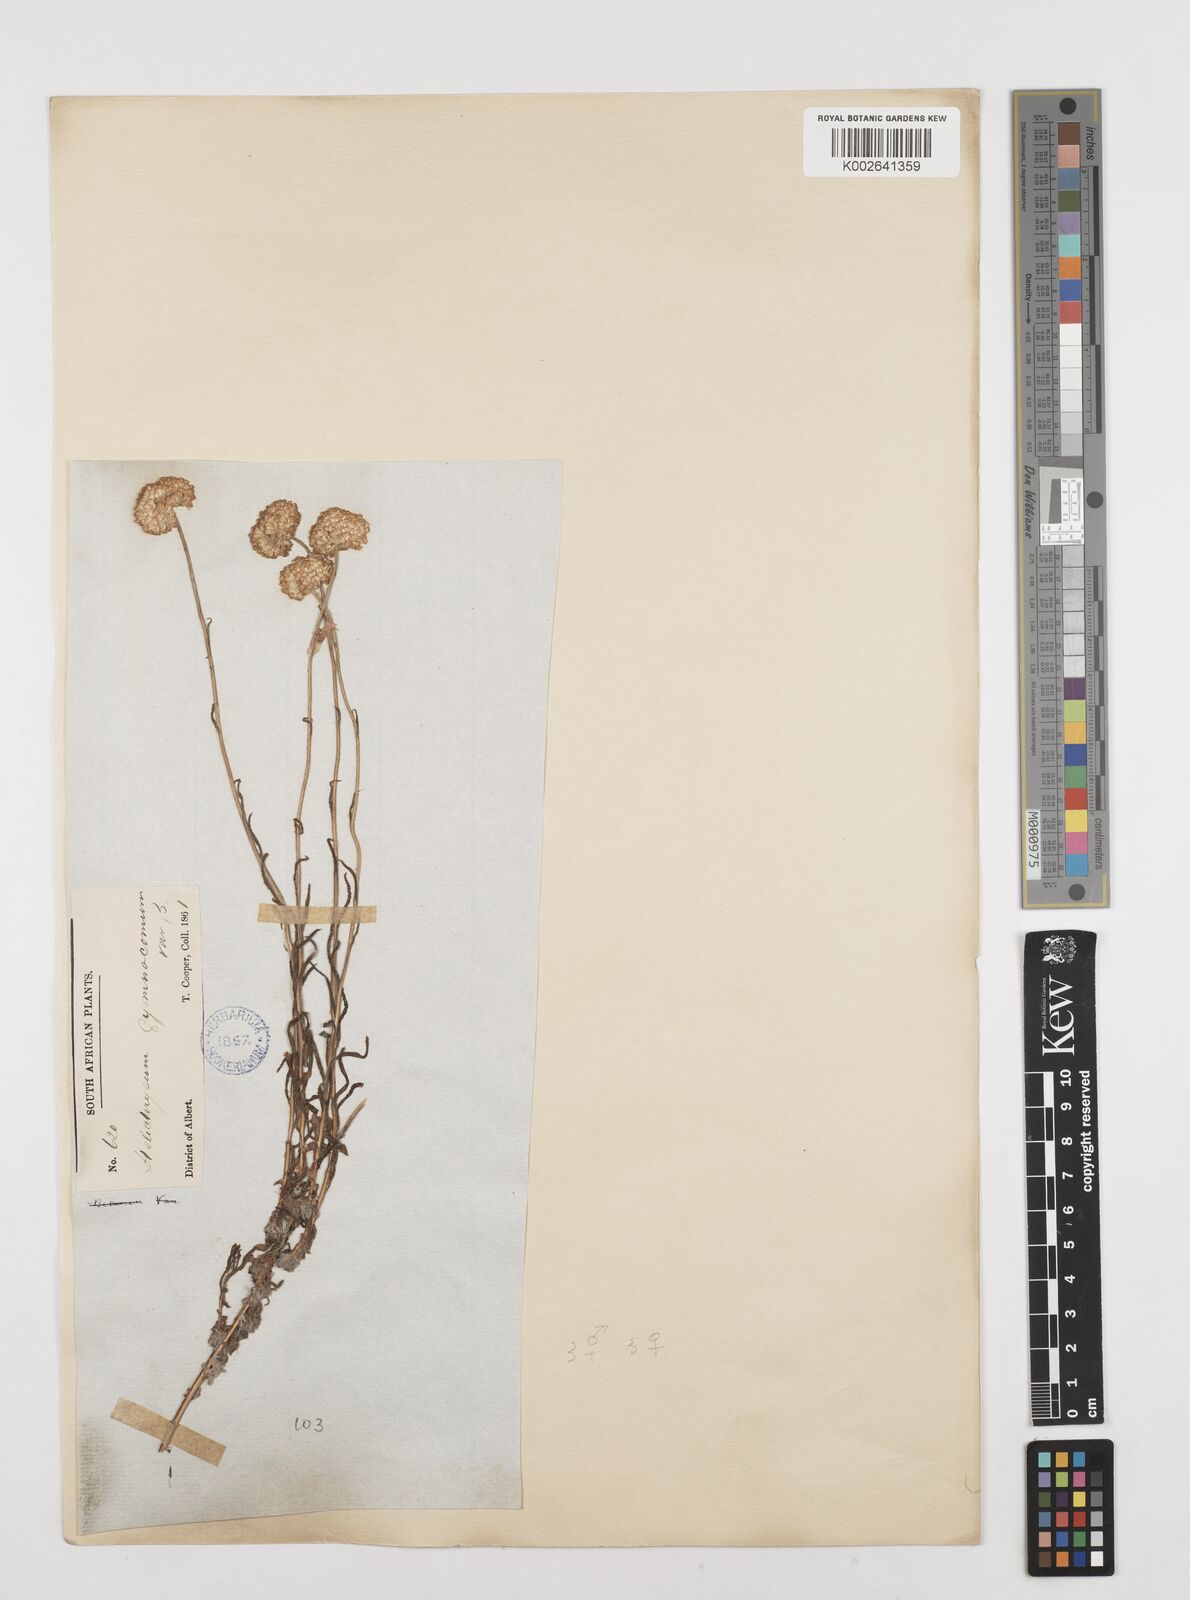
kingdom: Plantae
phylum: Tracheophyta
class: Magnoliopsida
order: Asterales
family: Asteraceae
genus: Helichrysum
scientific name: Helichrysum odoratissimum
